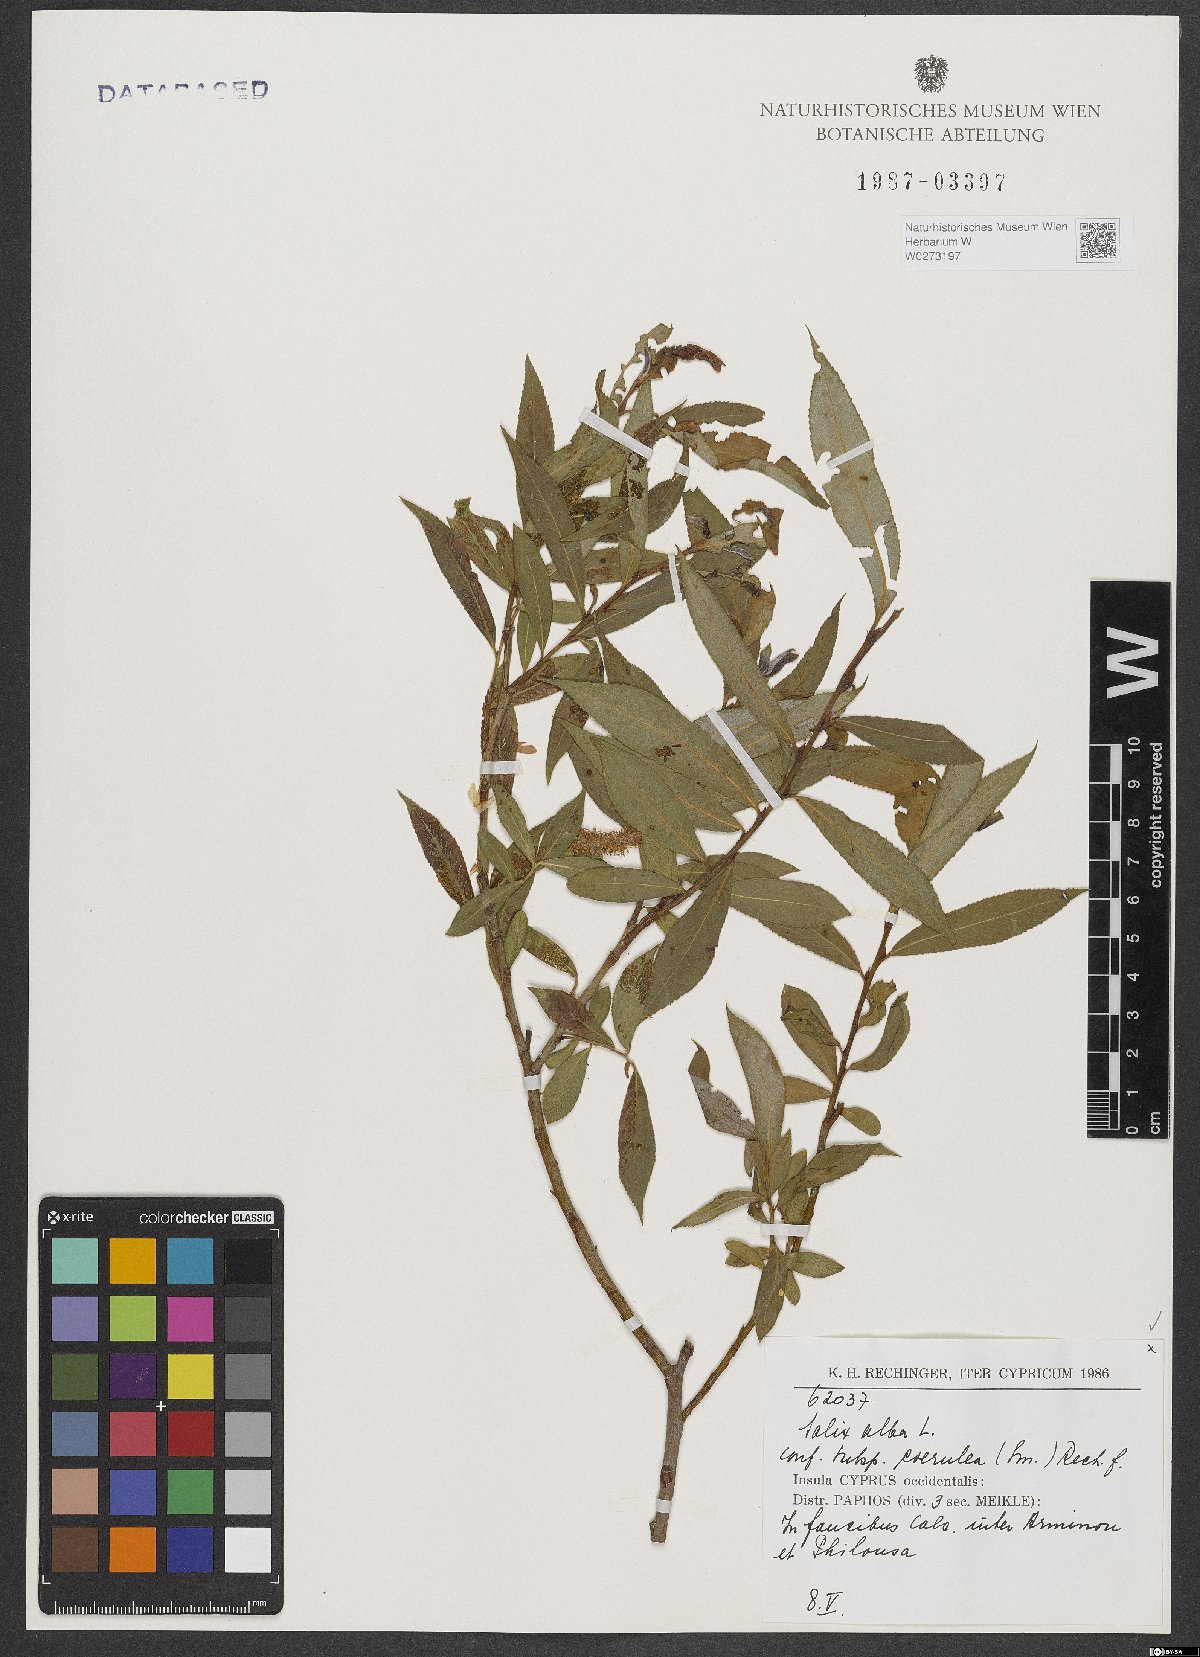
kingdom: Plantae
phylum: Tracheophyta
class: Magnoliopsida
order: Malpighiales
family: Salicaceae
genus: Salix
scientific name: Salix alba
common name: White willow
